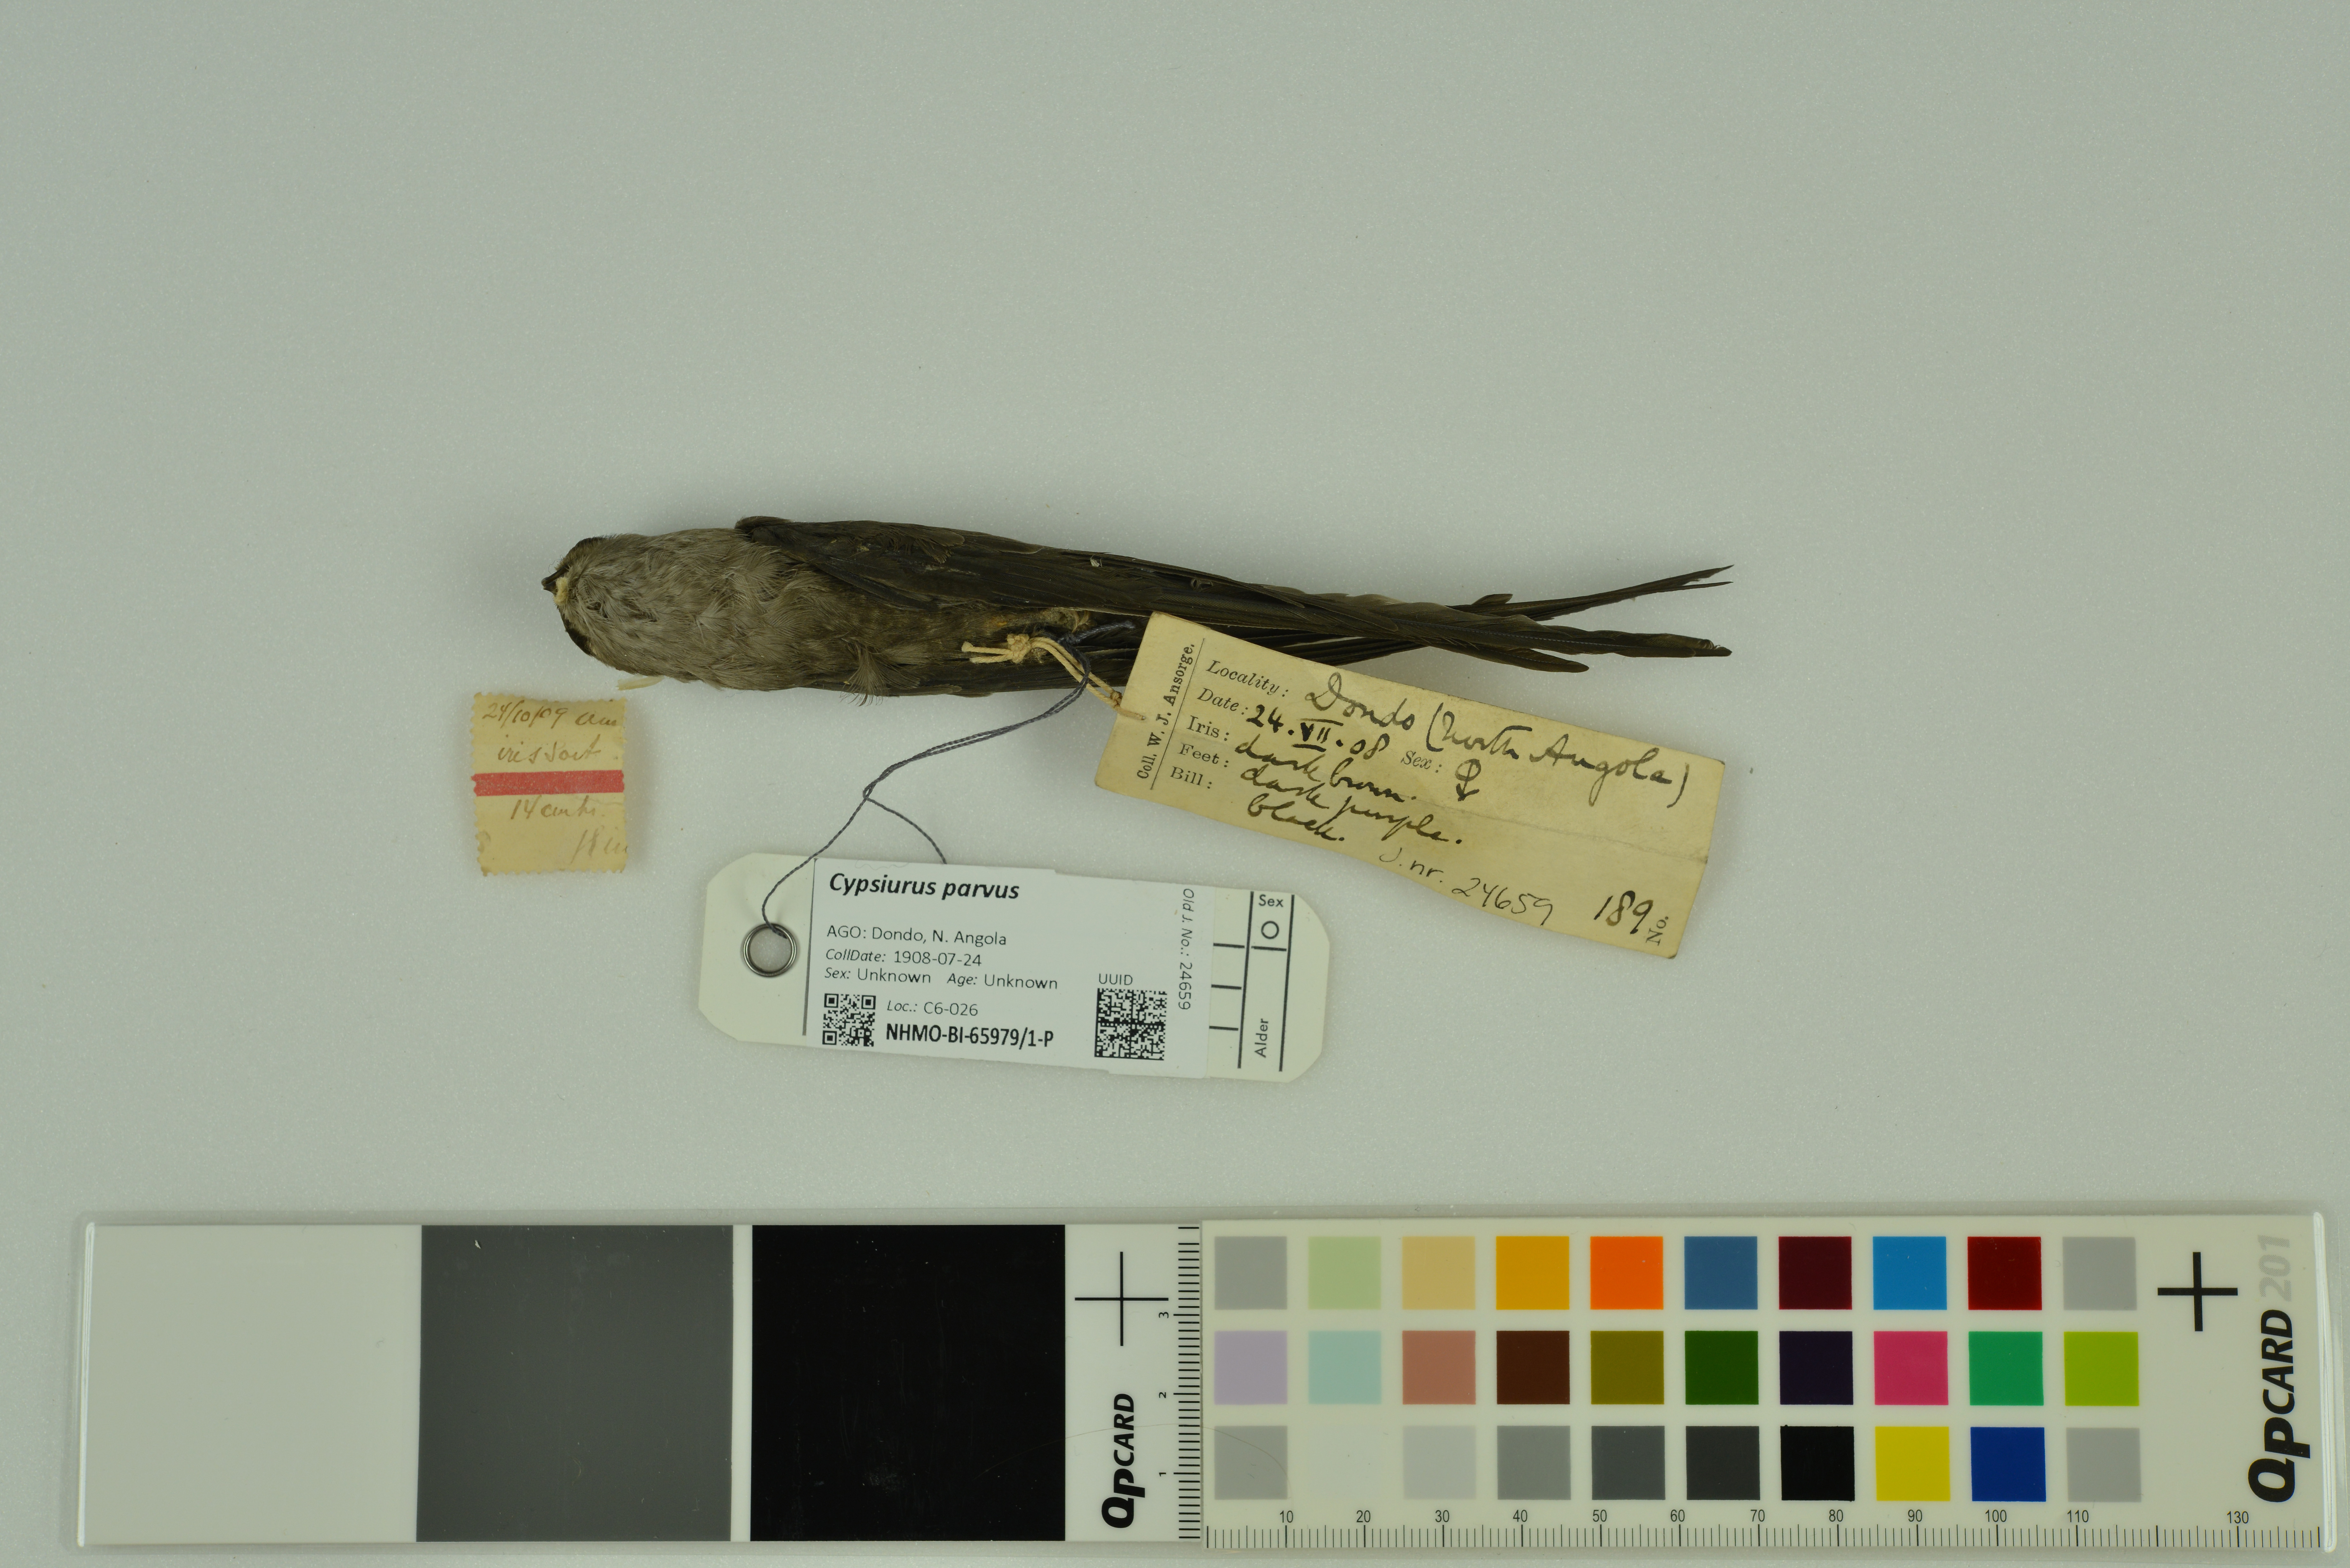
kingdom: Animalia
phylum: Chordata
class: Aves
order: Apodiformes
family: Apodidae
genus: Cypsiurus
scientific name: Cypsiurus parvus
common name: African palm swift
